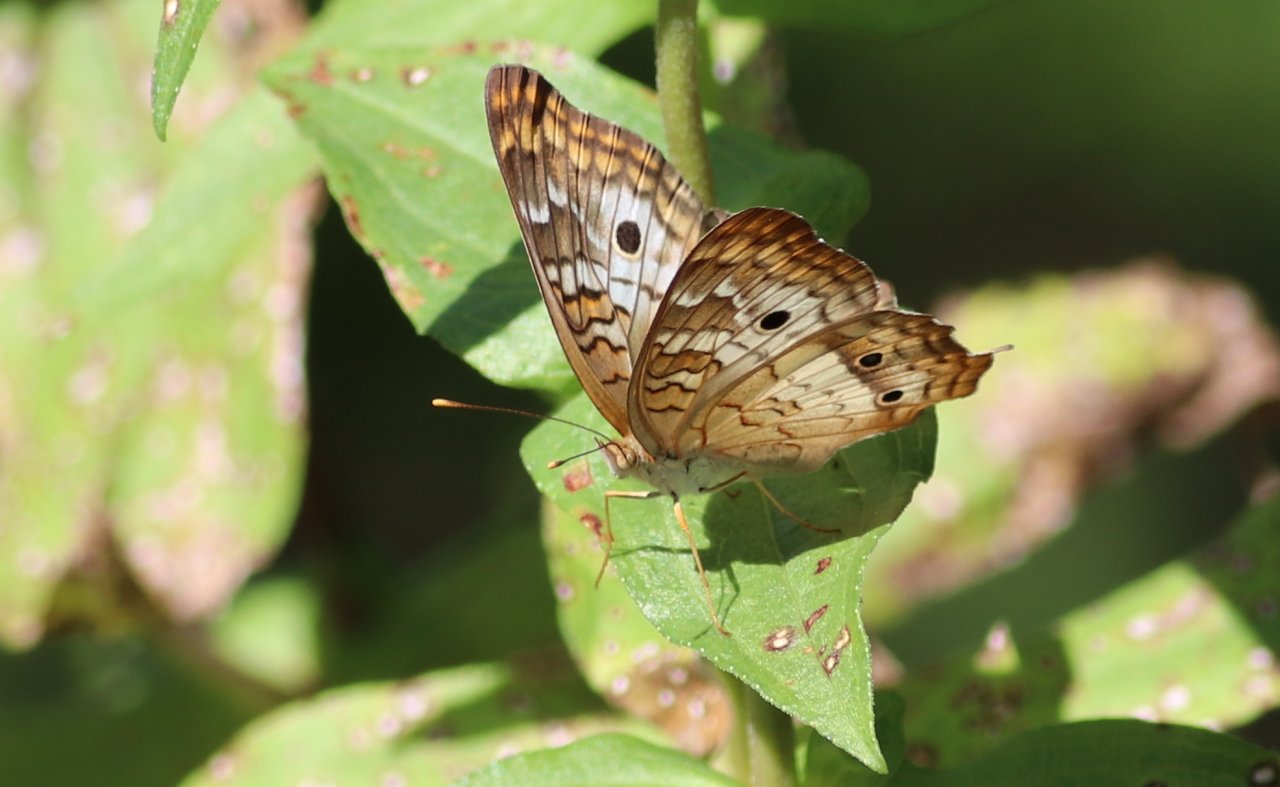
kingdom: Animalia
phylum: Arthropoda
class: Insecta
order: Lepidoptera
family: Nymphalidae
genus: Anartia
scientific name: Anartia jatrophae
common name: White Peacock
